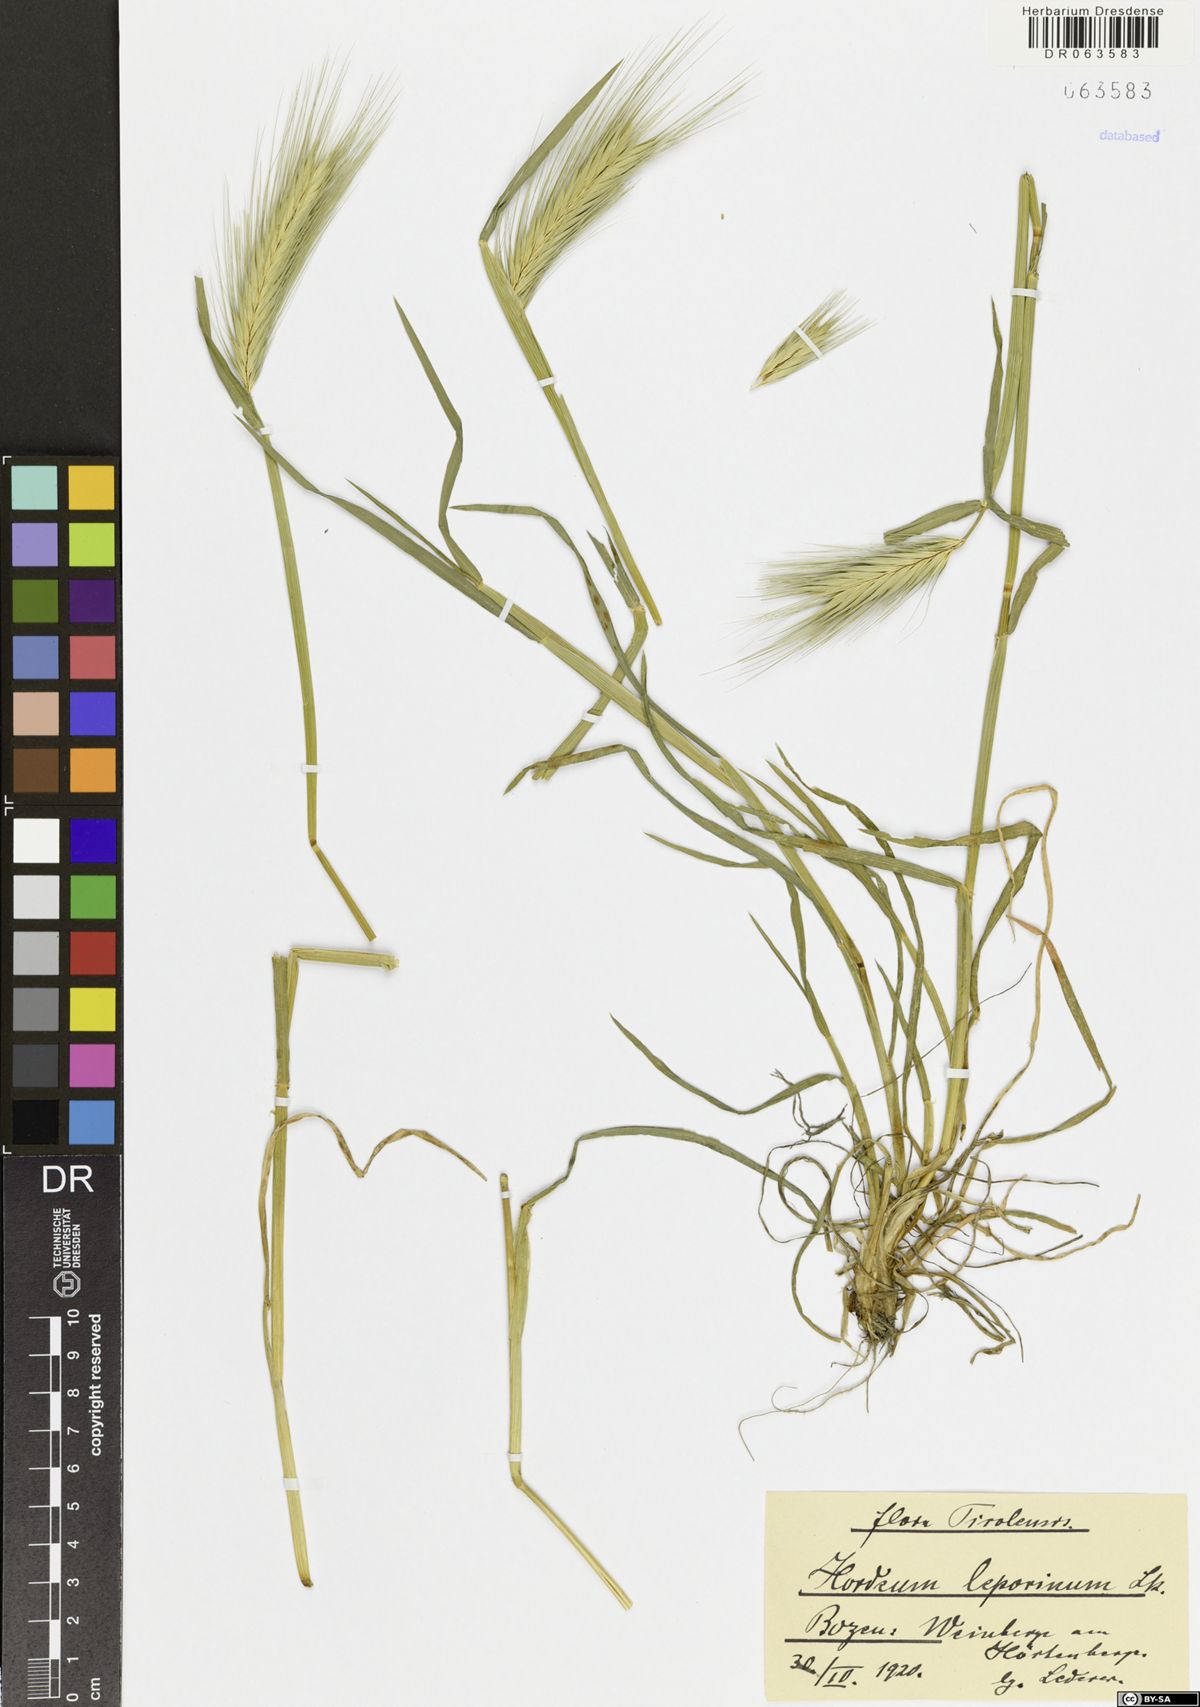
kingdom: Plantae
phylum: Tracheophyta
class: Liliopsida
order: Poales
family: Poaceae
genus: Hordeum
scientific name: Hordeum murinum
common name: Wall barley
